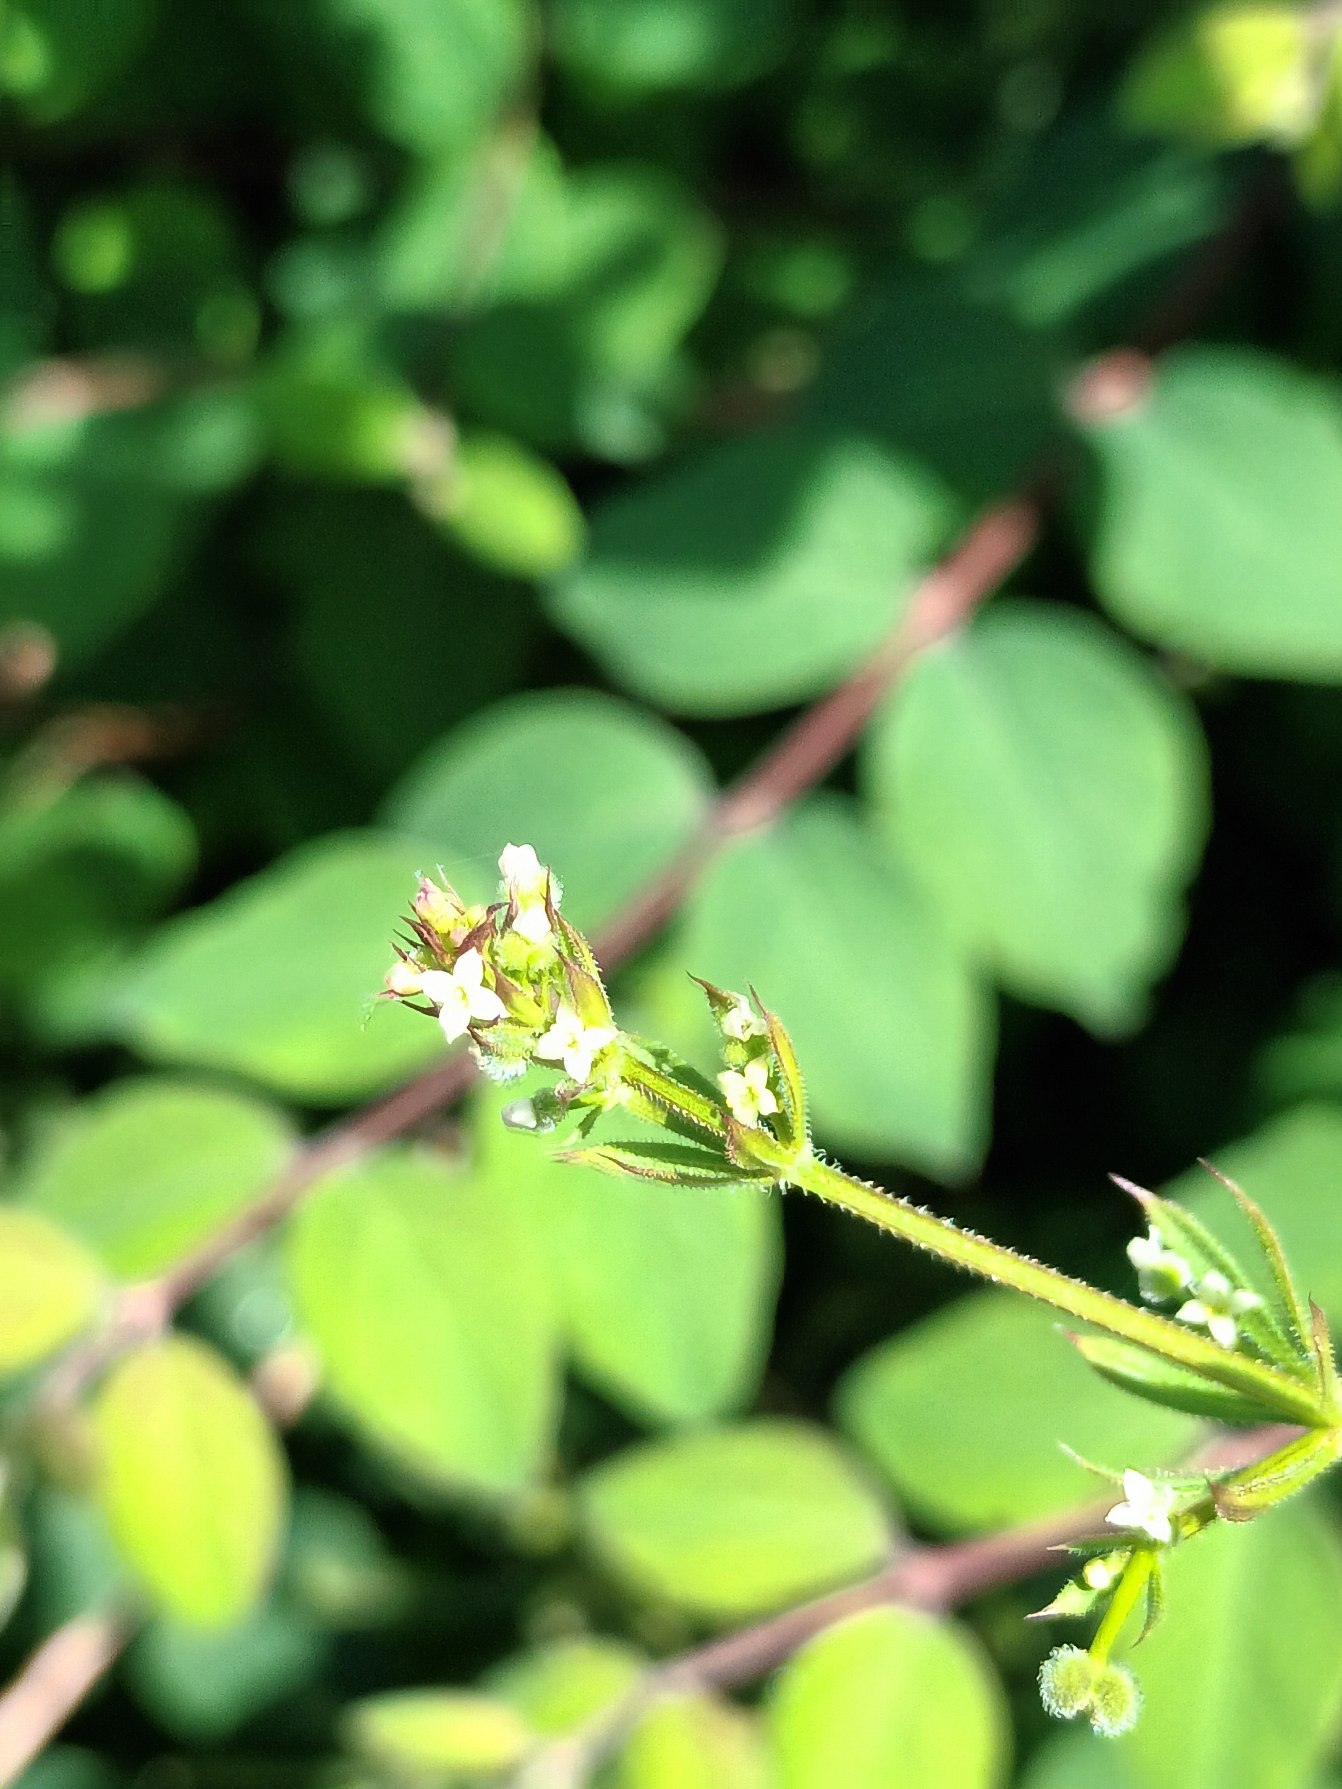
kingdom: Plantae
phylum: Tracheophyta
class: Magnoliopsida
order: Gentianales
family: Rubiaceae
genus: Galium
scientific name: Galium aparine
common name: Burre-snerre
